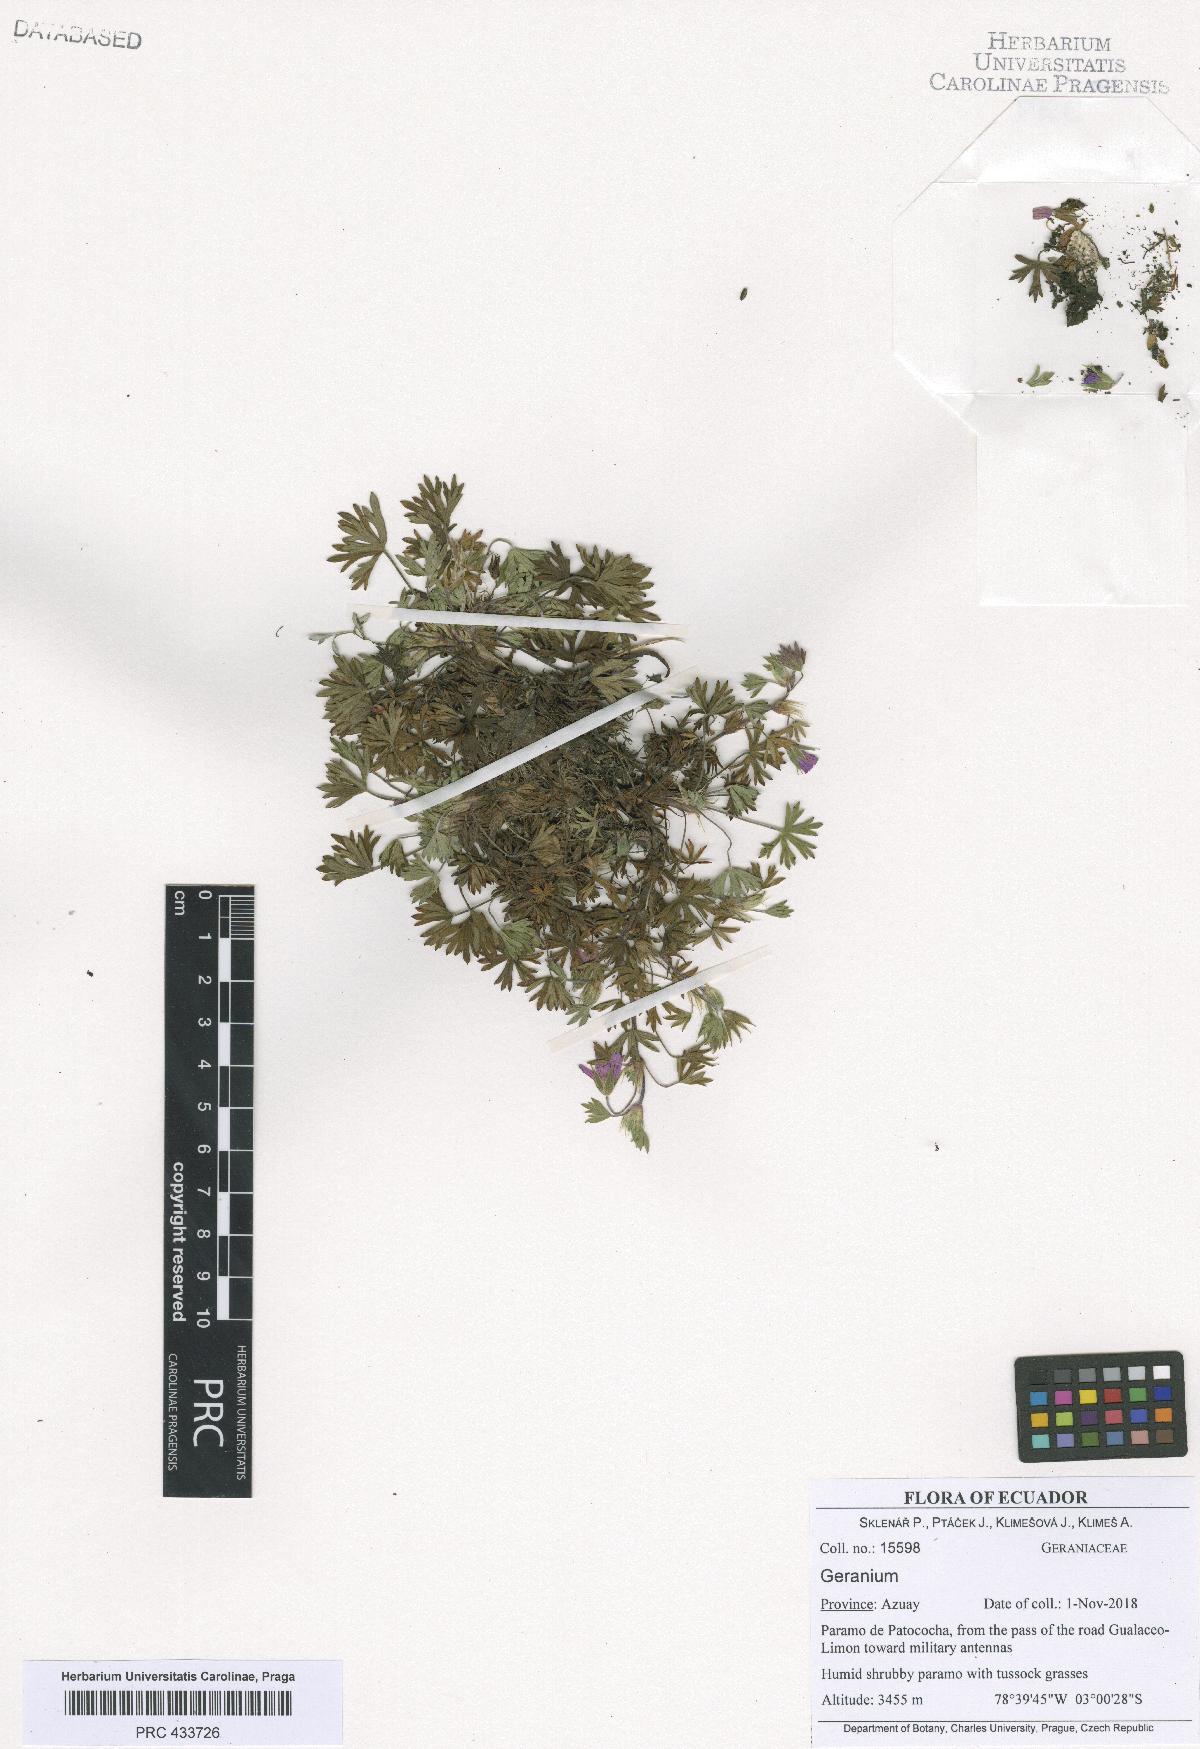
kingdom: Plantae
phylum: Tracheophyta
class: Magnoliopsida
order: Geraniales
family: Geraniaceae
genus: Geranium
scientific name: Geranium sibbaldioides
